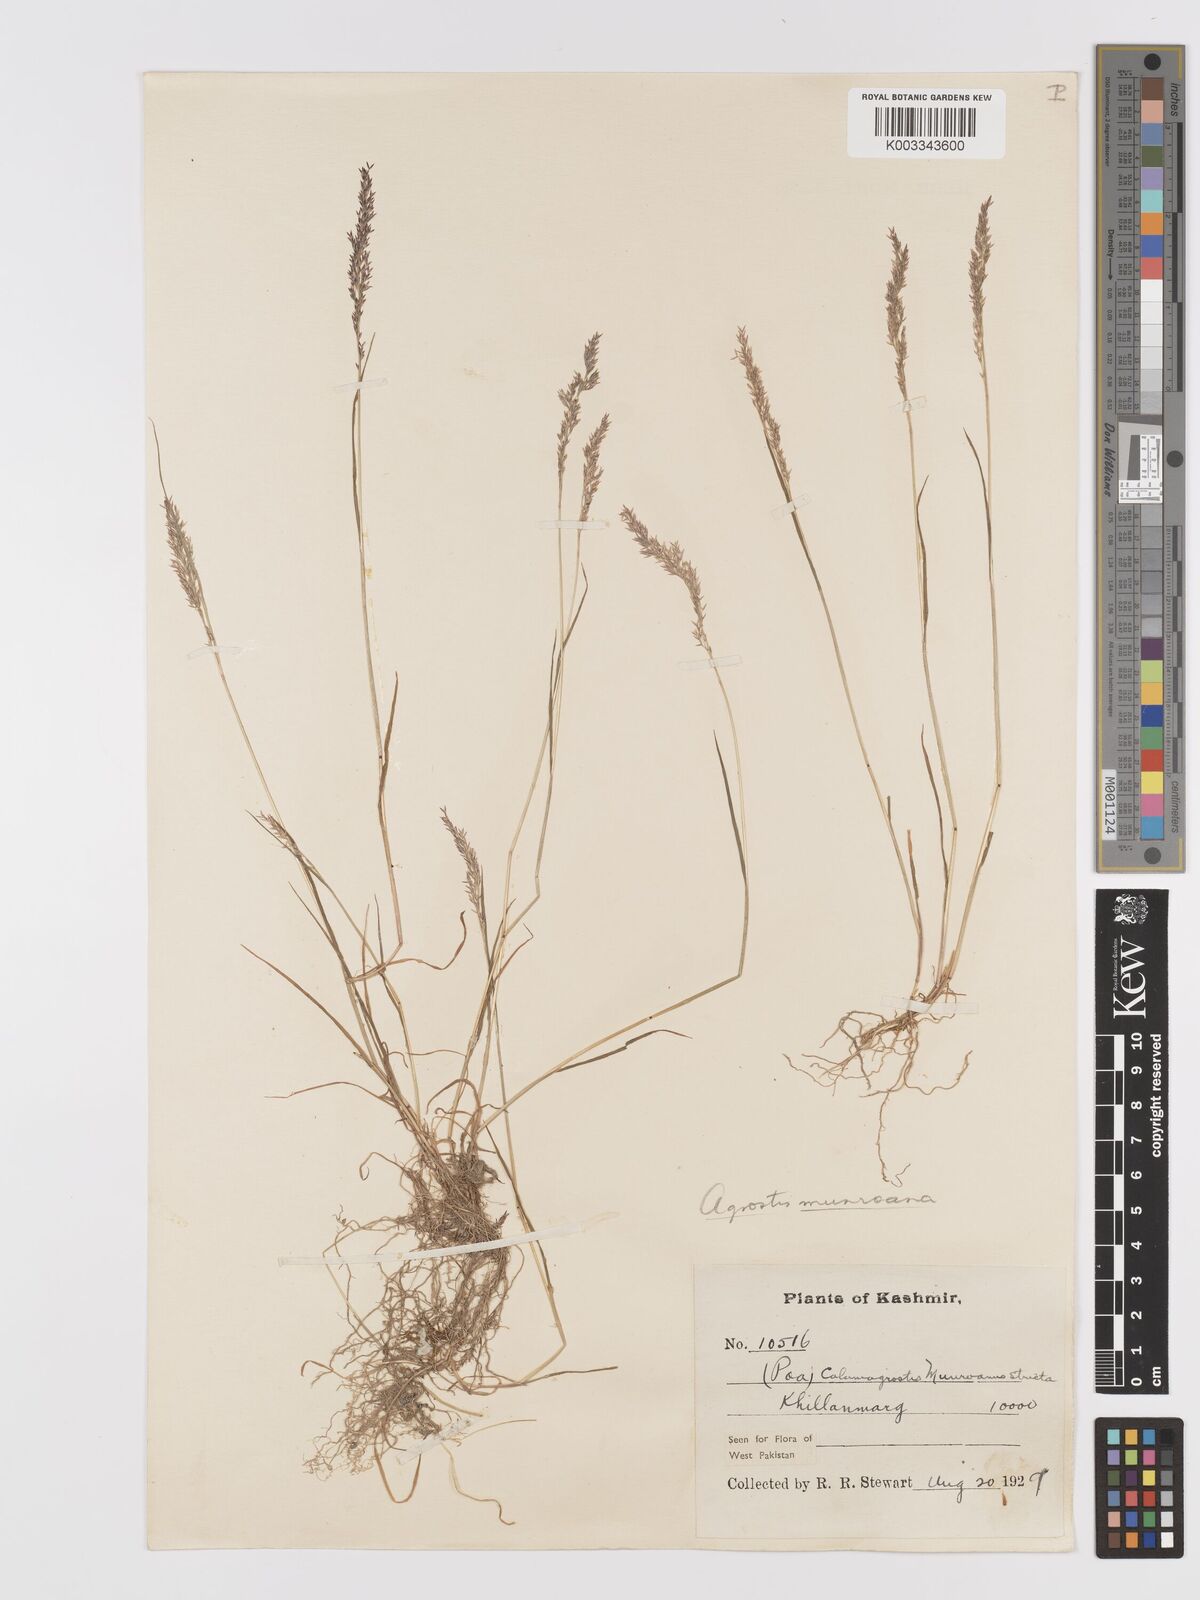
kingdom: Plantae
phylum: Tracheophyta
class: Liliopsida
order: Poales
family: Poaceae
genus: Agrostis
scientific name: Agrostis munroana
